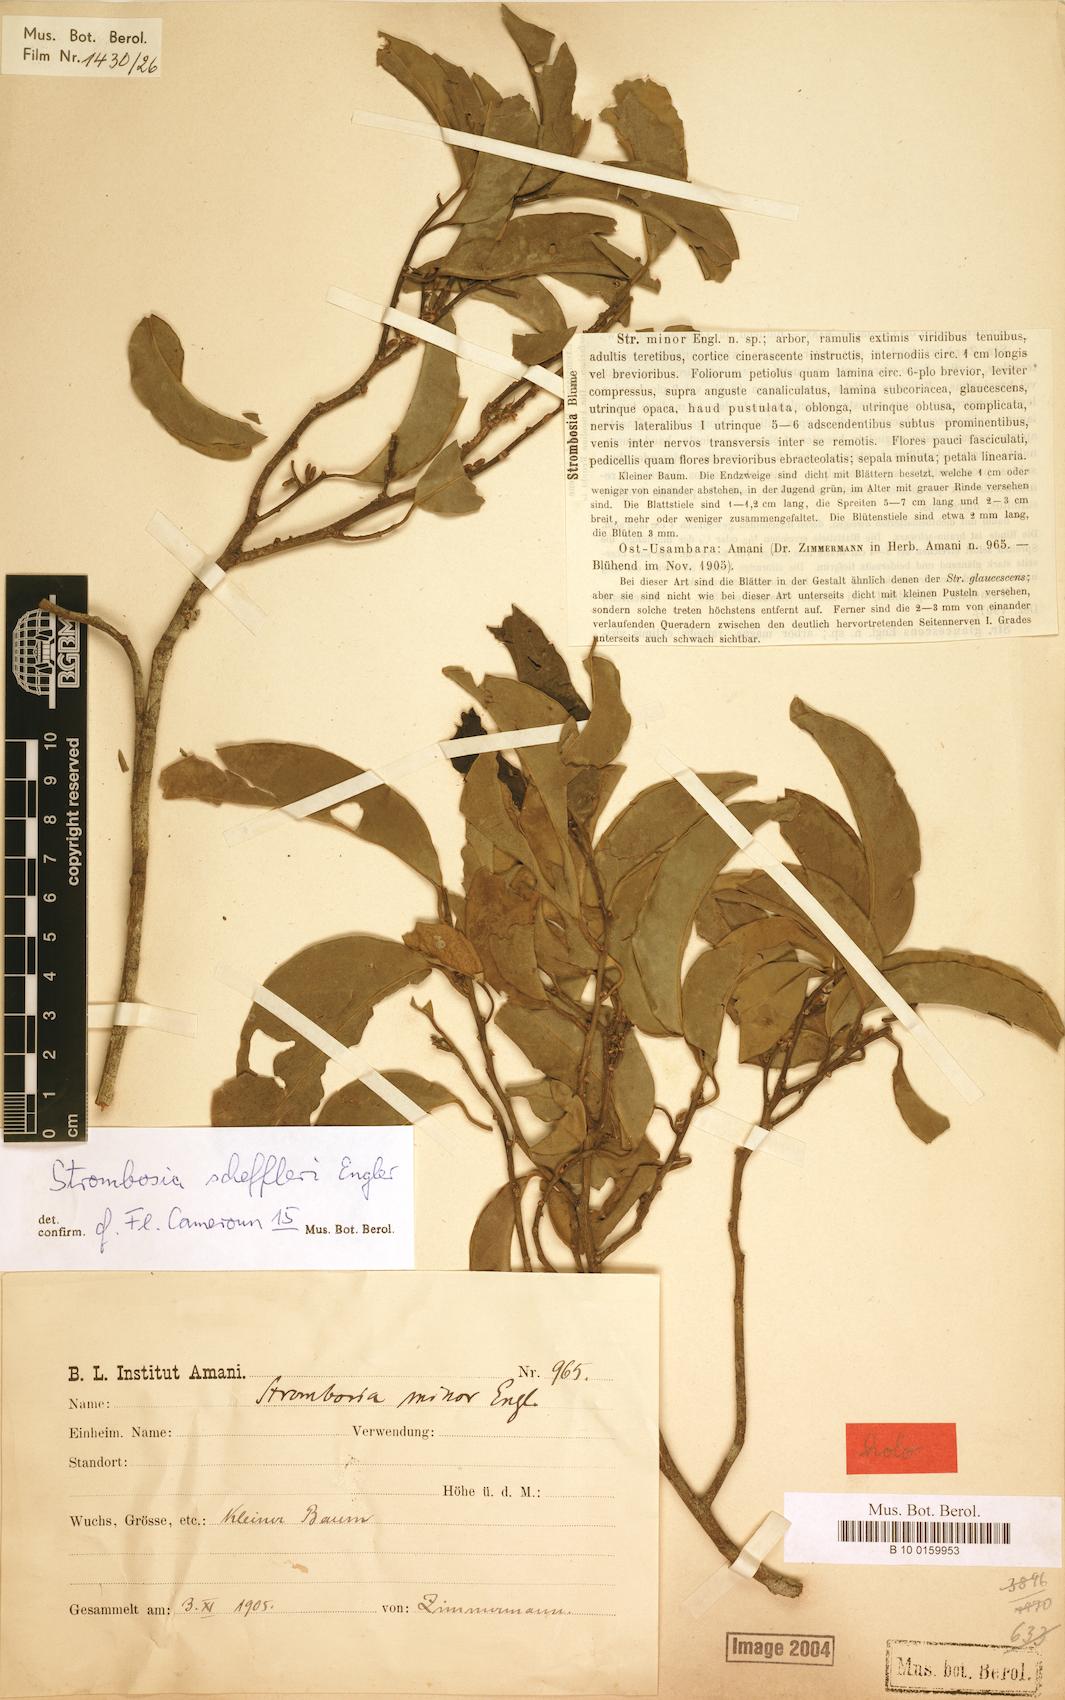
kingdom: Plantae
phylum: Tracheophyta
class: Magnoliopsida
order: Santalales
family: Strombosiaceae
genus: Strombosia
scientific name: Strombosia scheffleri
